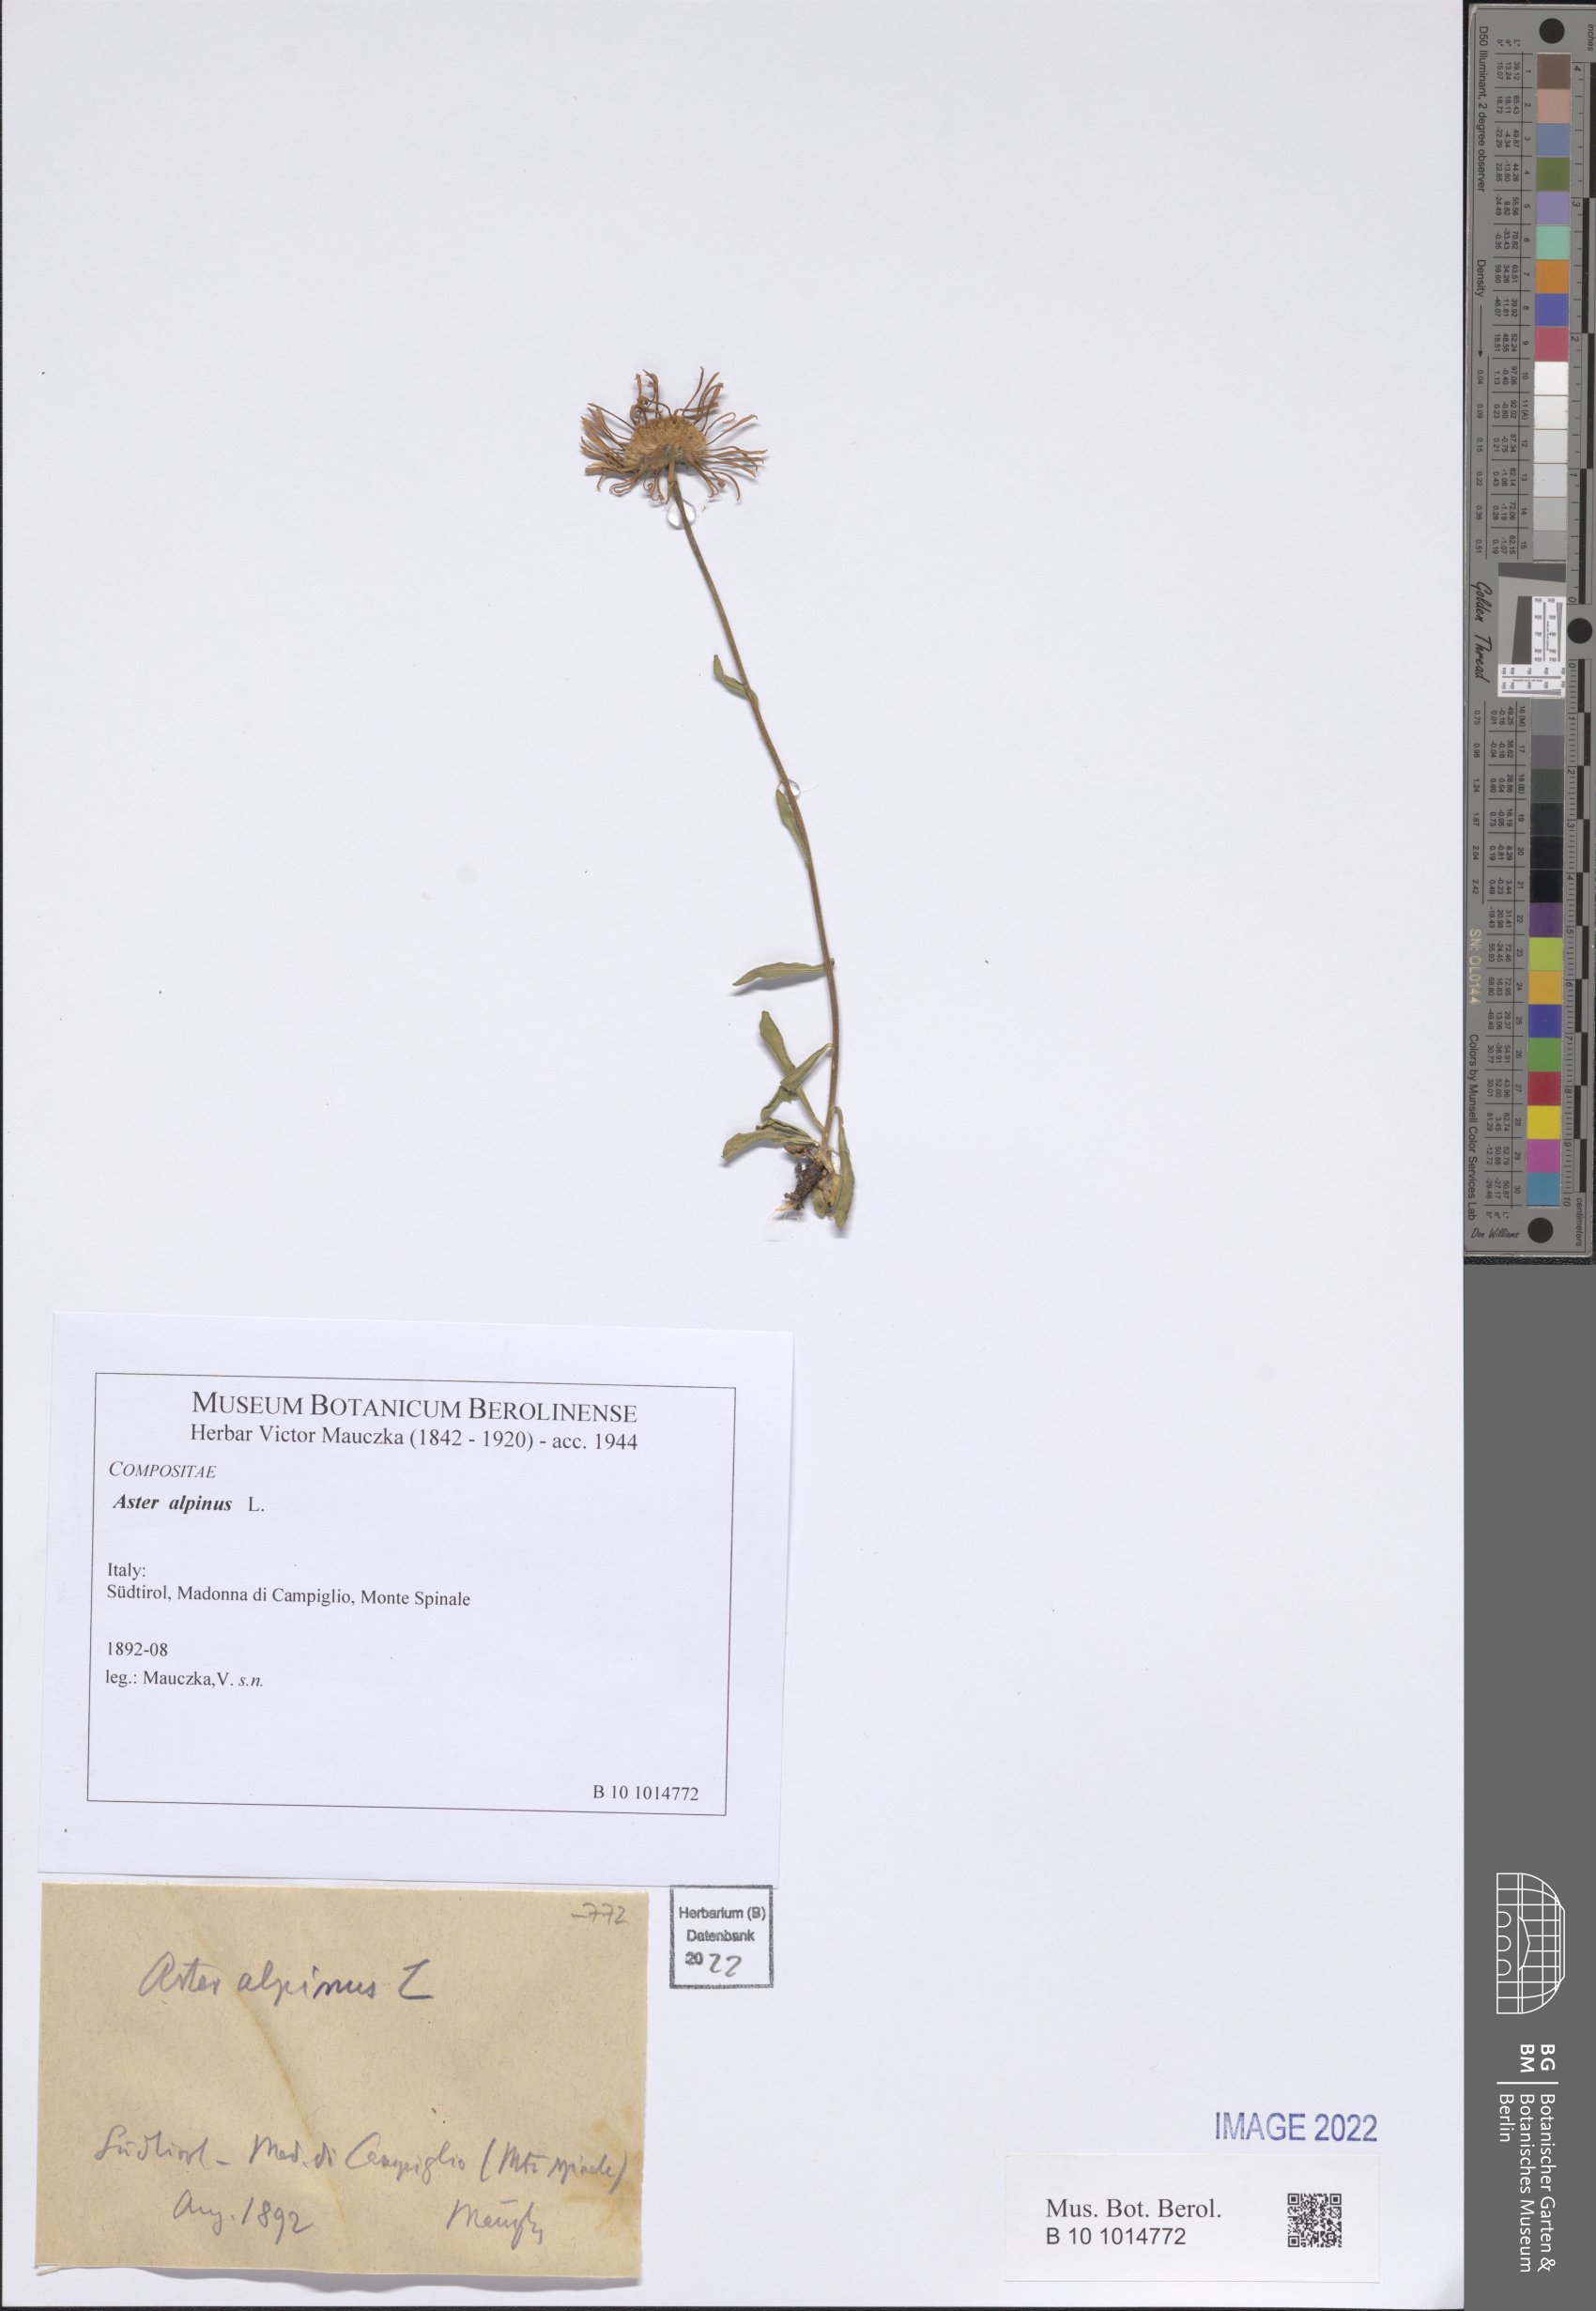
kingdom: Plantae
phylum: Tracheophyta
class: Magnoliopsida
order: Asterales
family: Asteraceae
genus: Aster
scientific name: Aster alpinus
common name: Alpine aster
